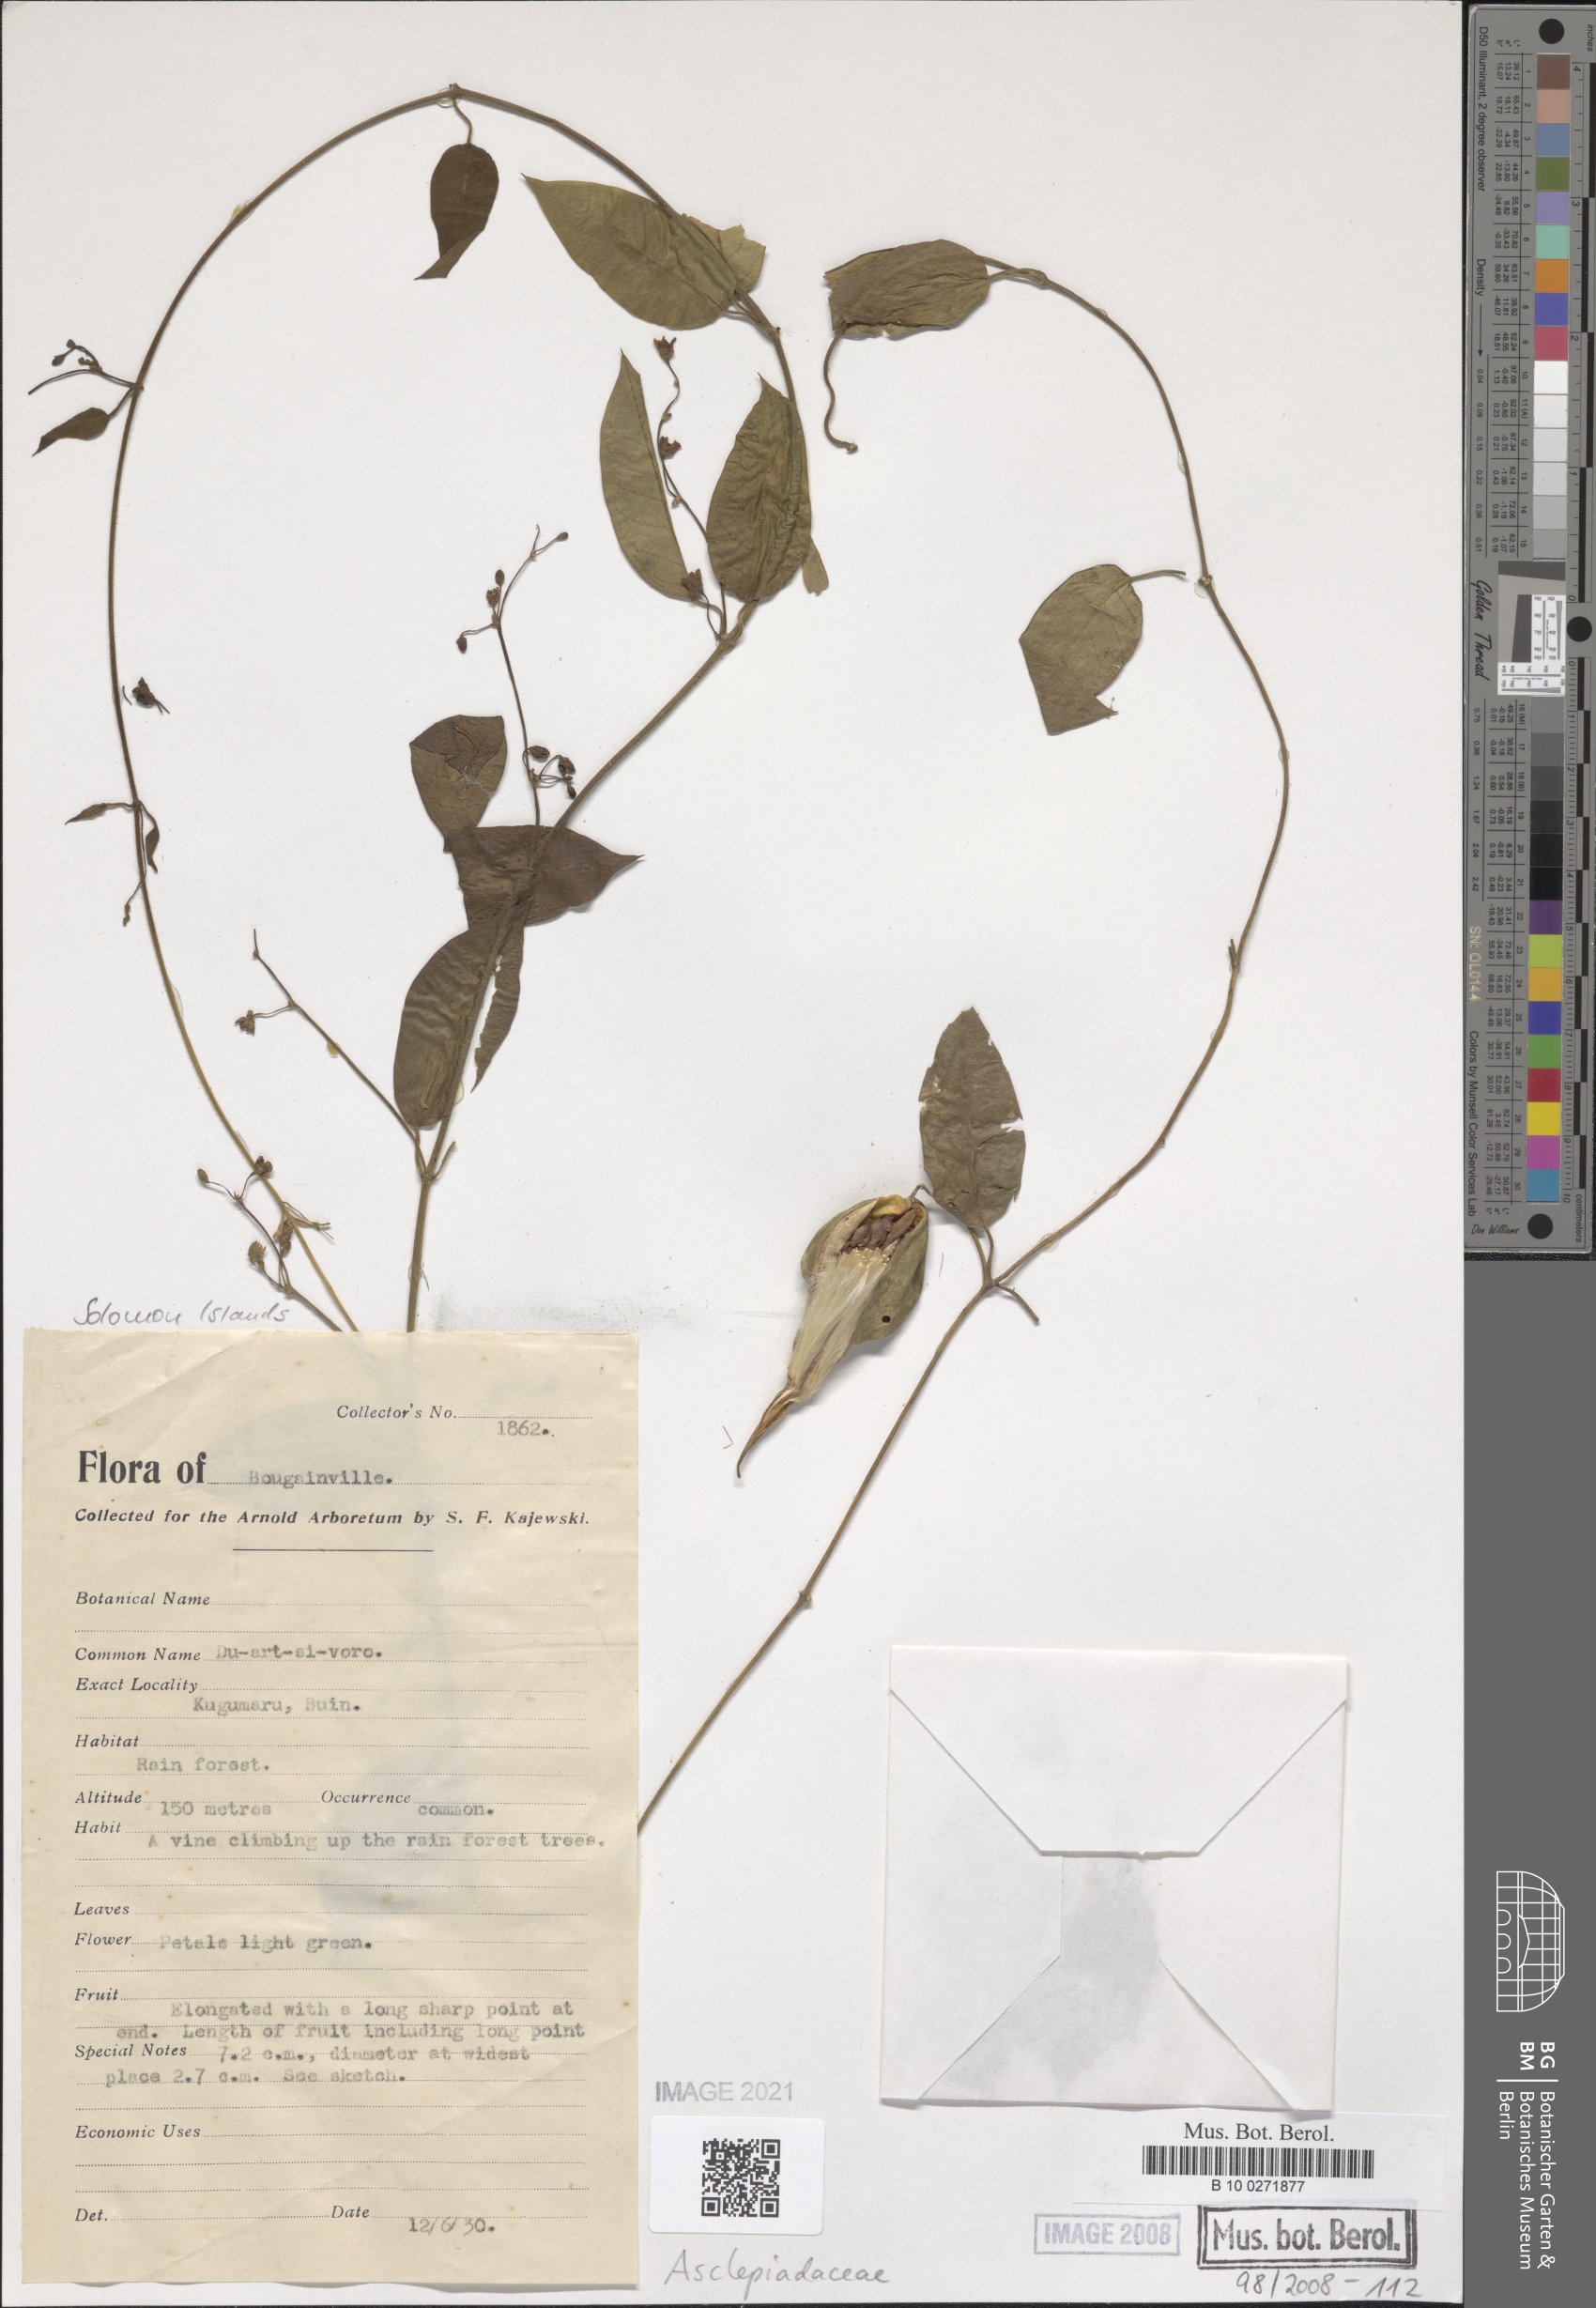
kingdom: Plantae
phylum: Tracheophyta
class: Magnoliopsida
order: Gentianales
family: Asclepiadaceae
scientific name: Asclepiadaceae
